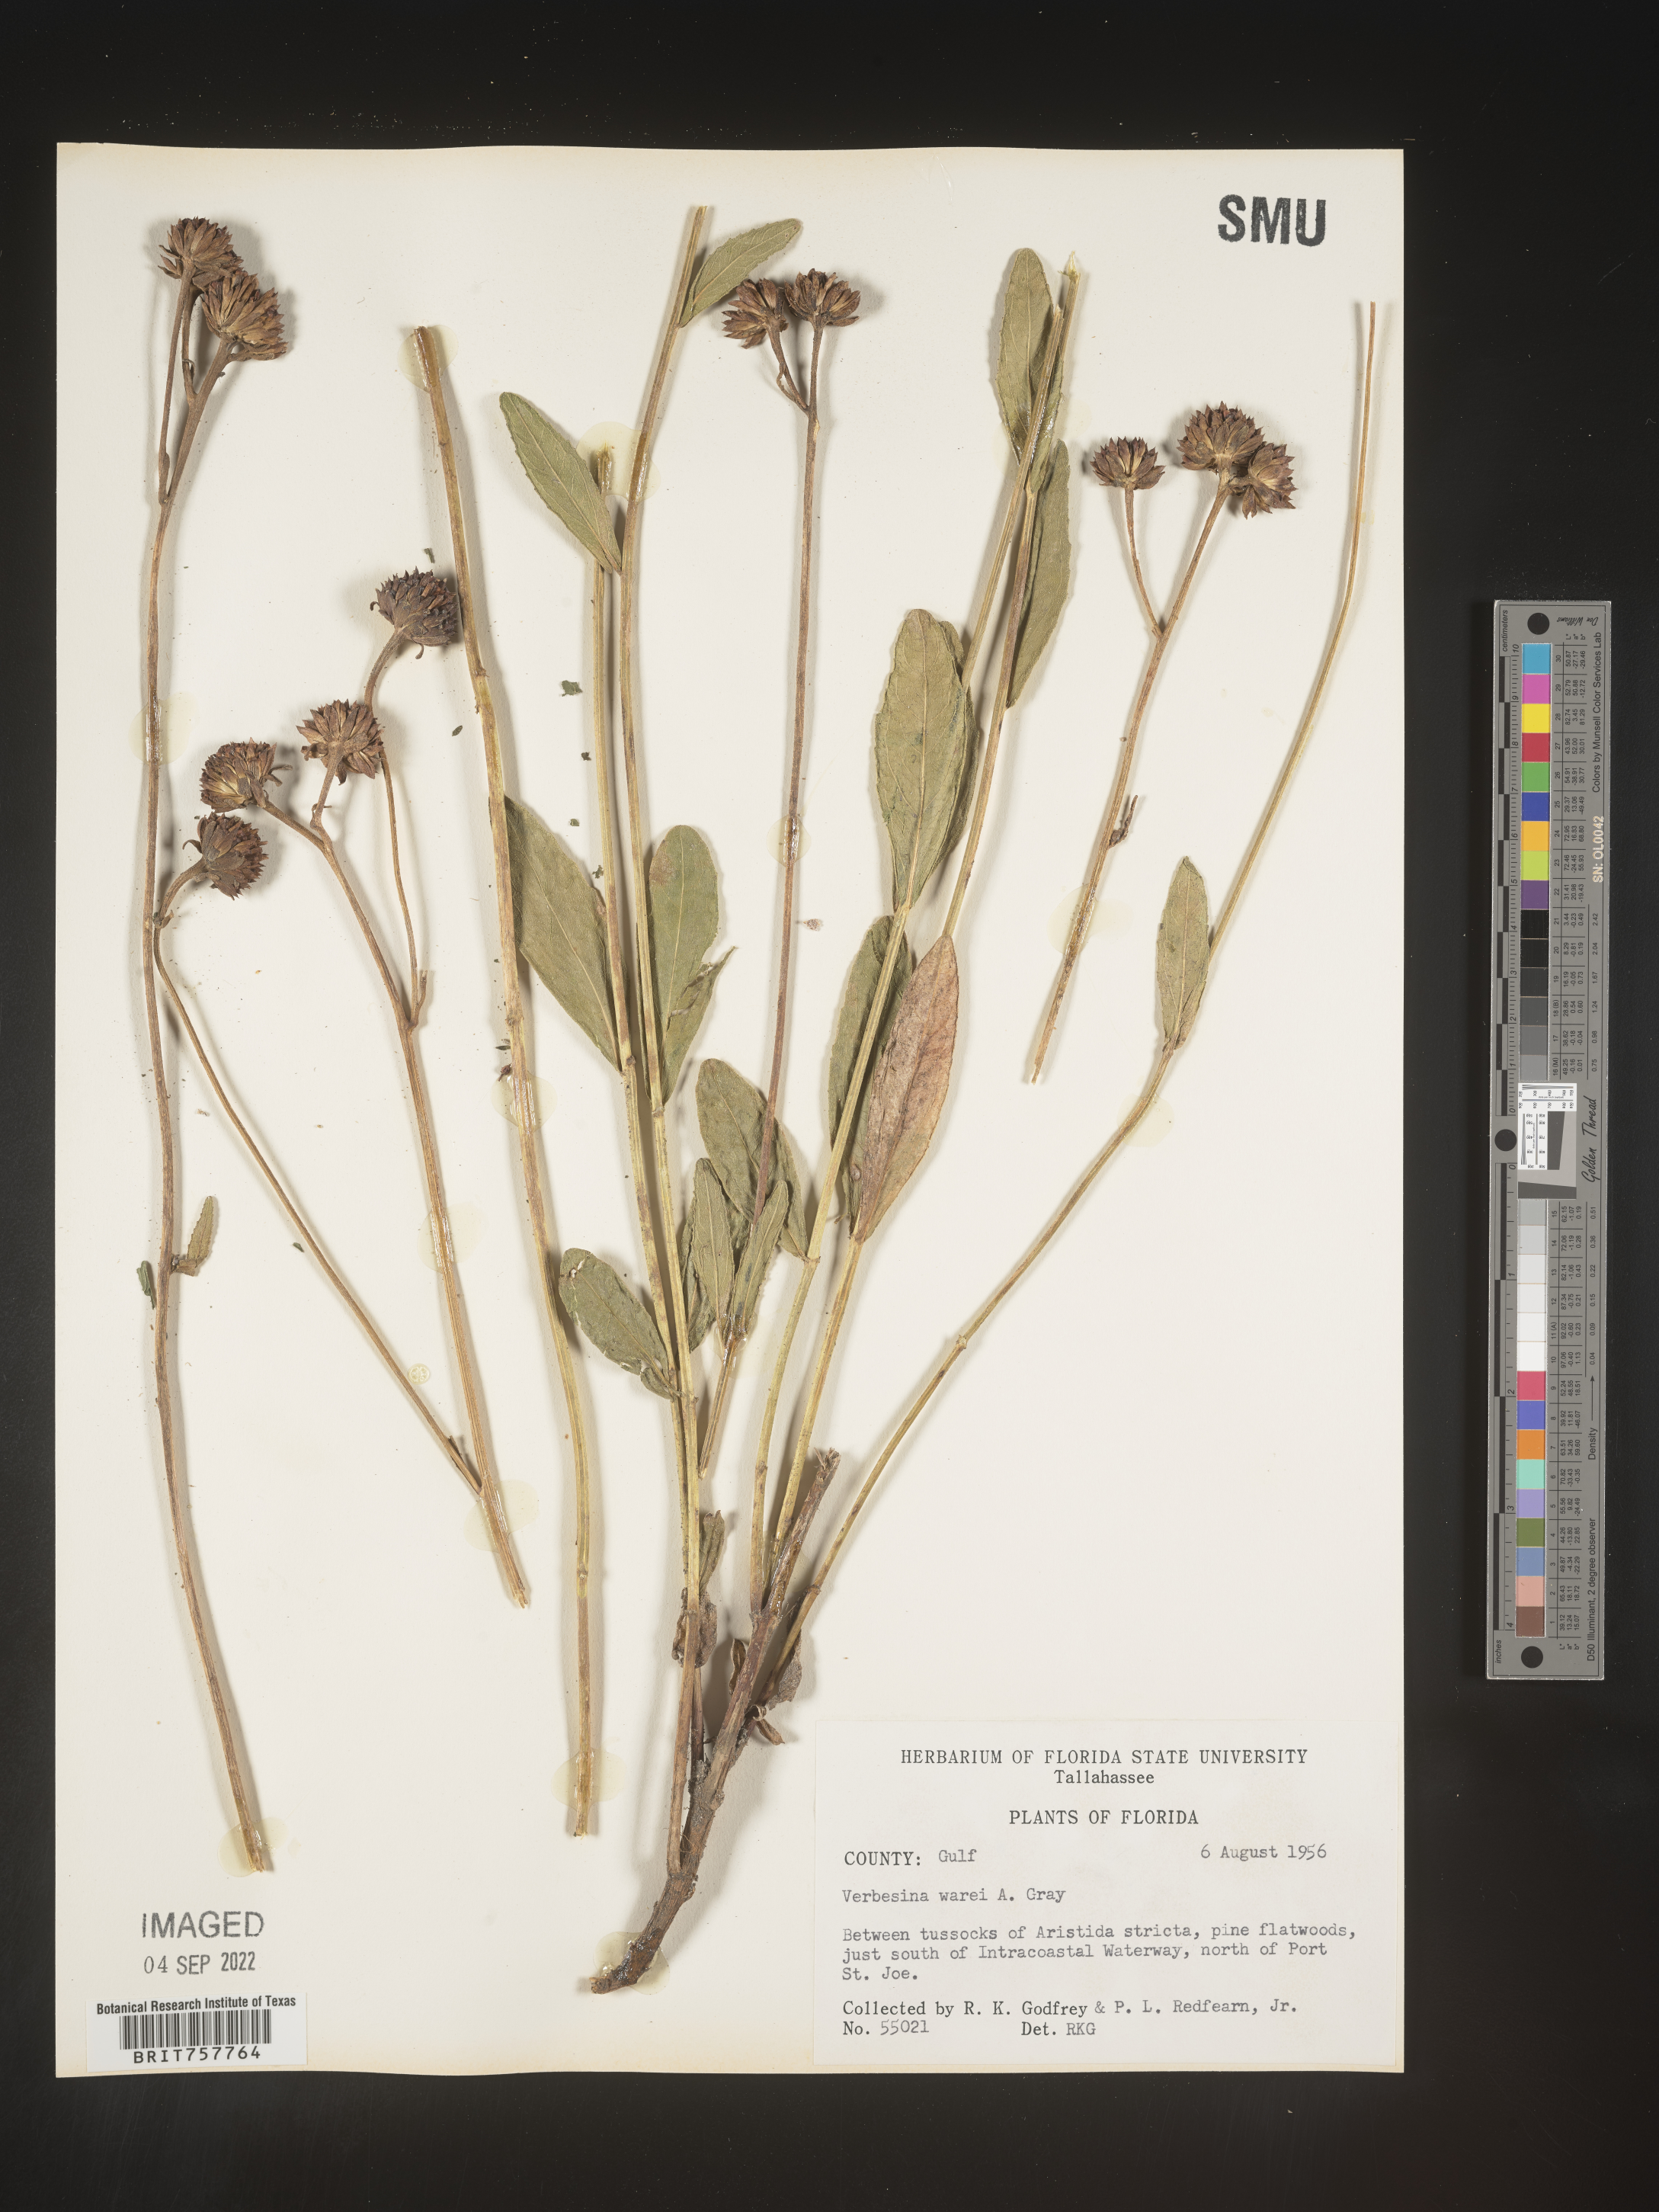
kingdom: Plantae
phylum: Tracheophyta
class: Magnoliopsida
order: Asterales
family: Asteraceae
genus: Verbesina
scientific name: Verbesina
